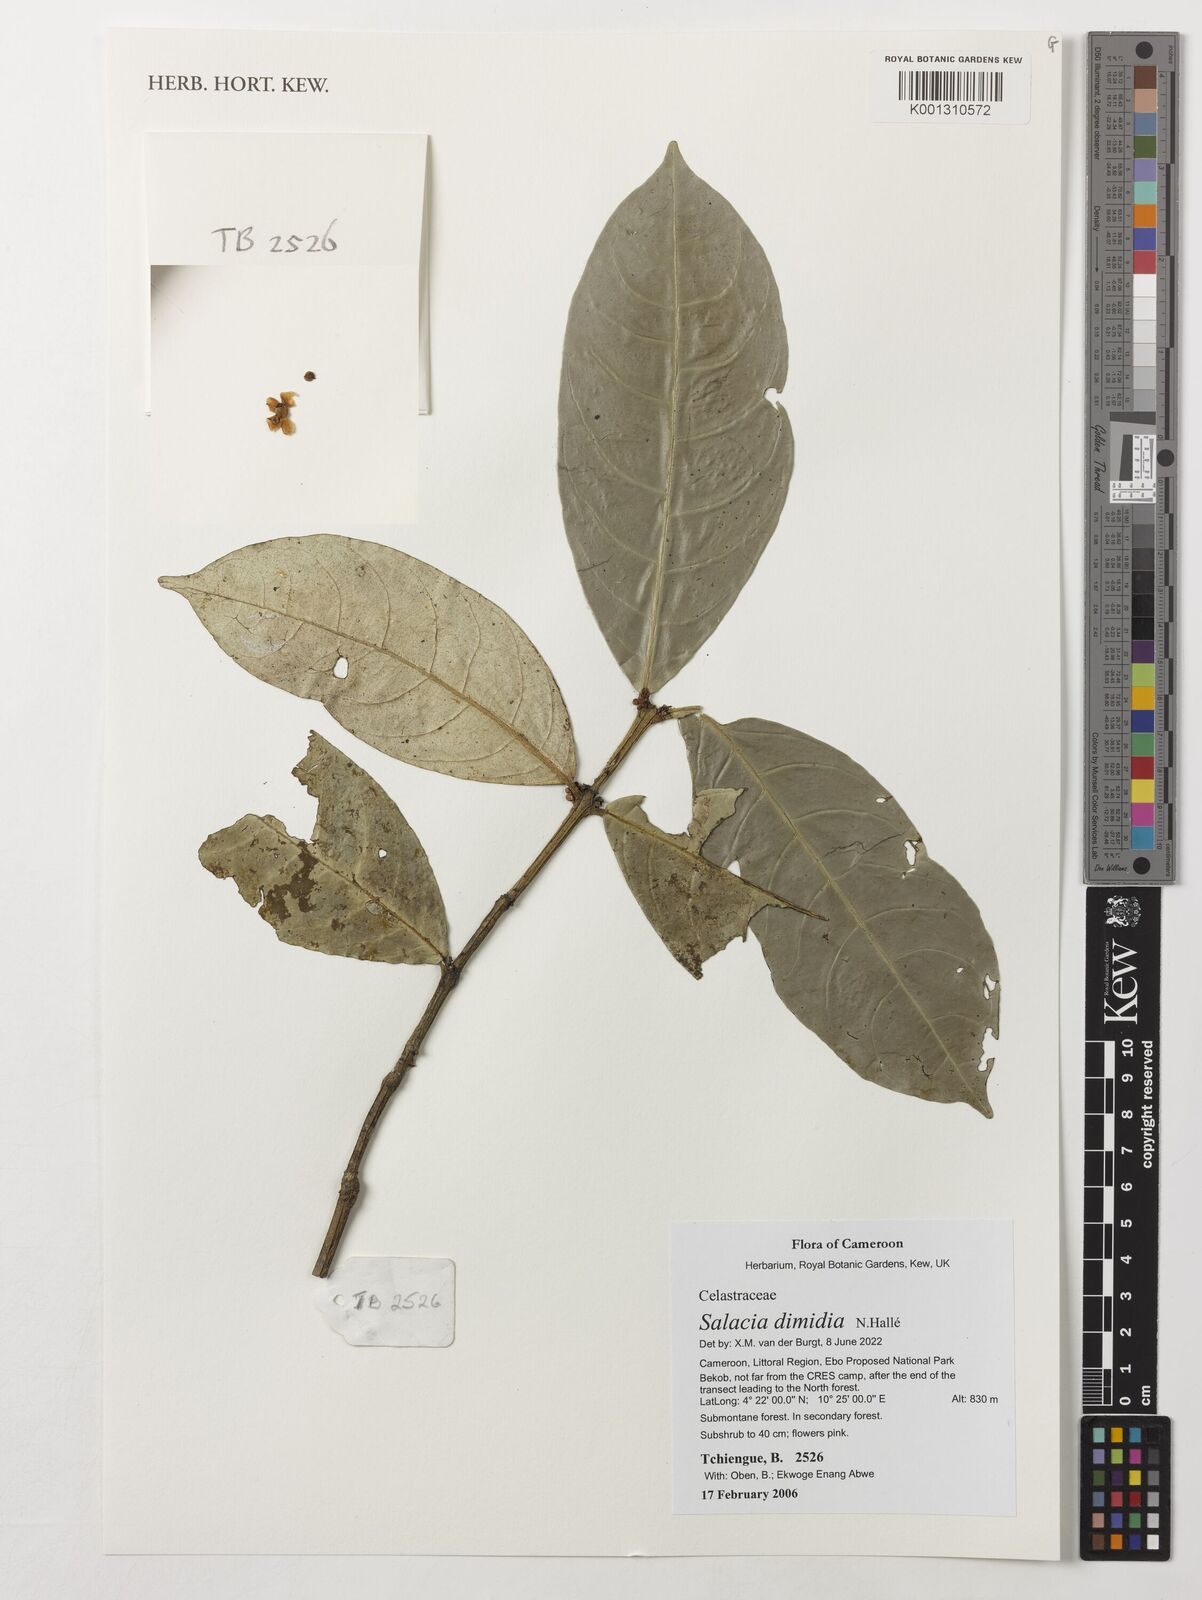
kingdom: Plantae
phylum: Tracheophyta
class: Magnoliopsida
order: Celastrales
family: Celastraceae
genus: Salacia
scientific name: Salacia dimidia
